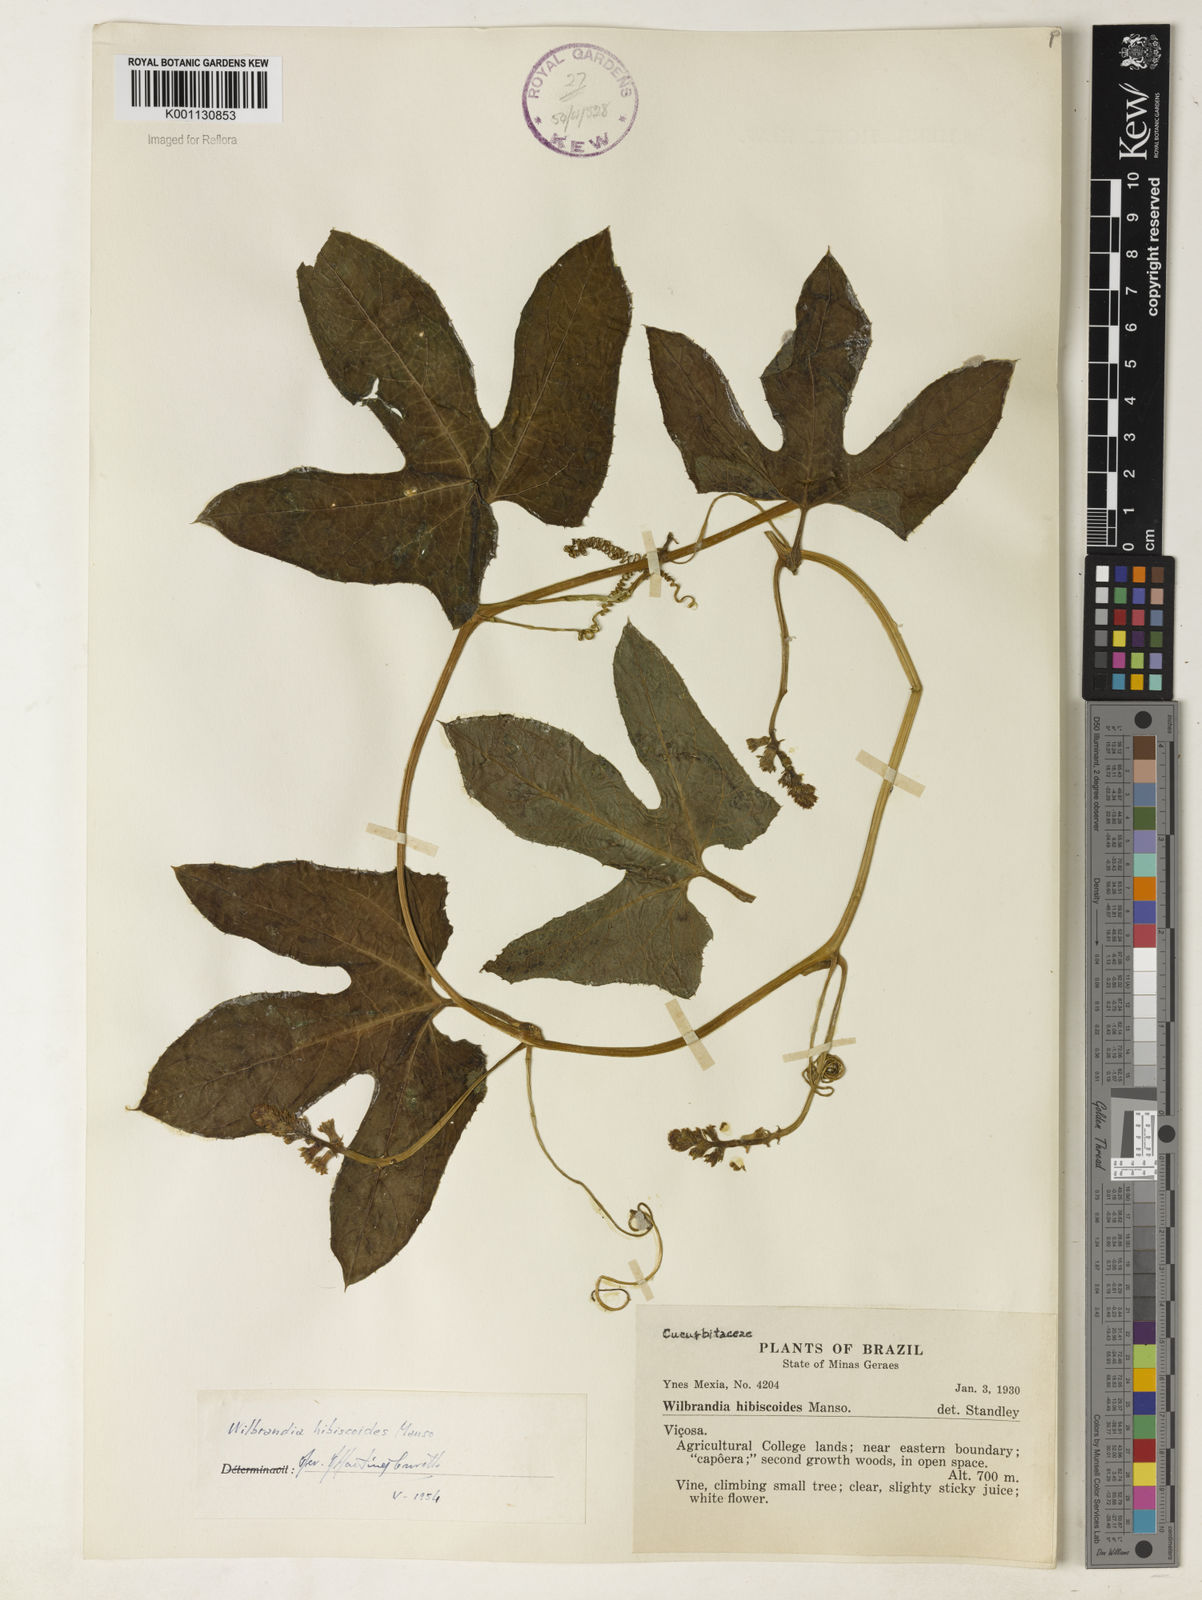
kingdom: Plantae
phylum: Tracheophyta
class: Magnoliopsida
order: Cucurbitales
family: Cucurbitaceae
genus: Wilbrandia
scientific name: Wilbrandia hibiscoides
